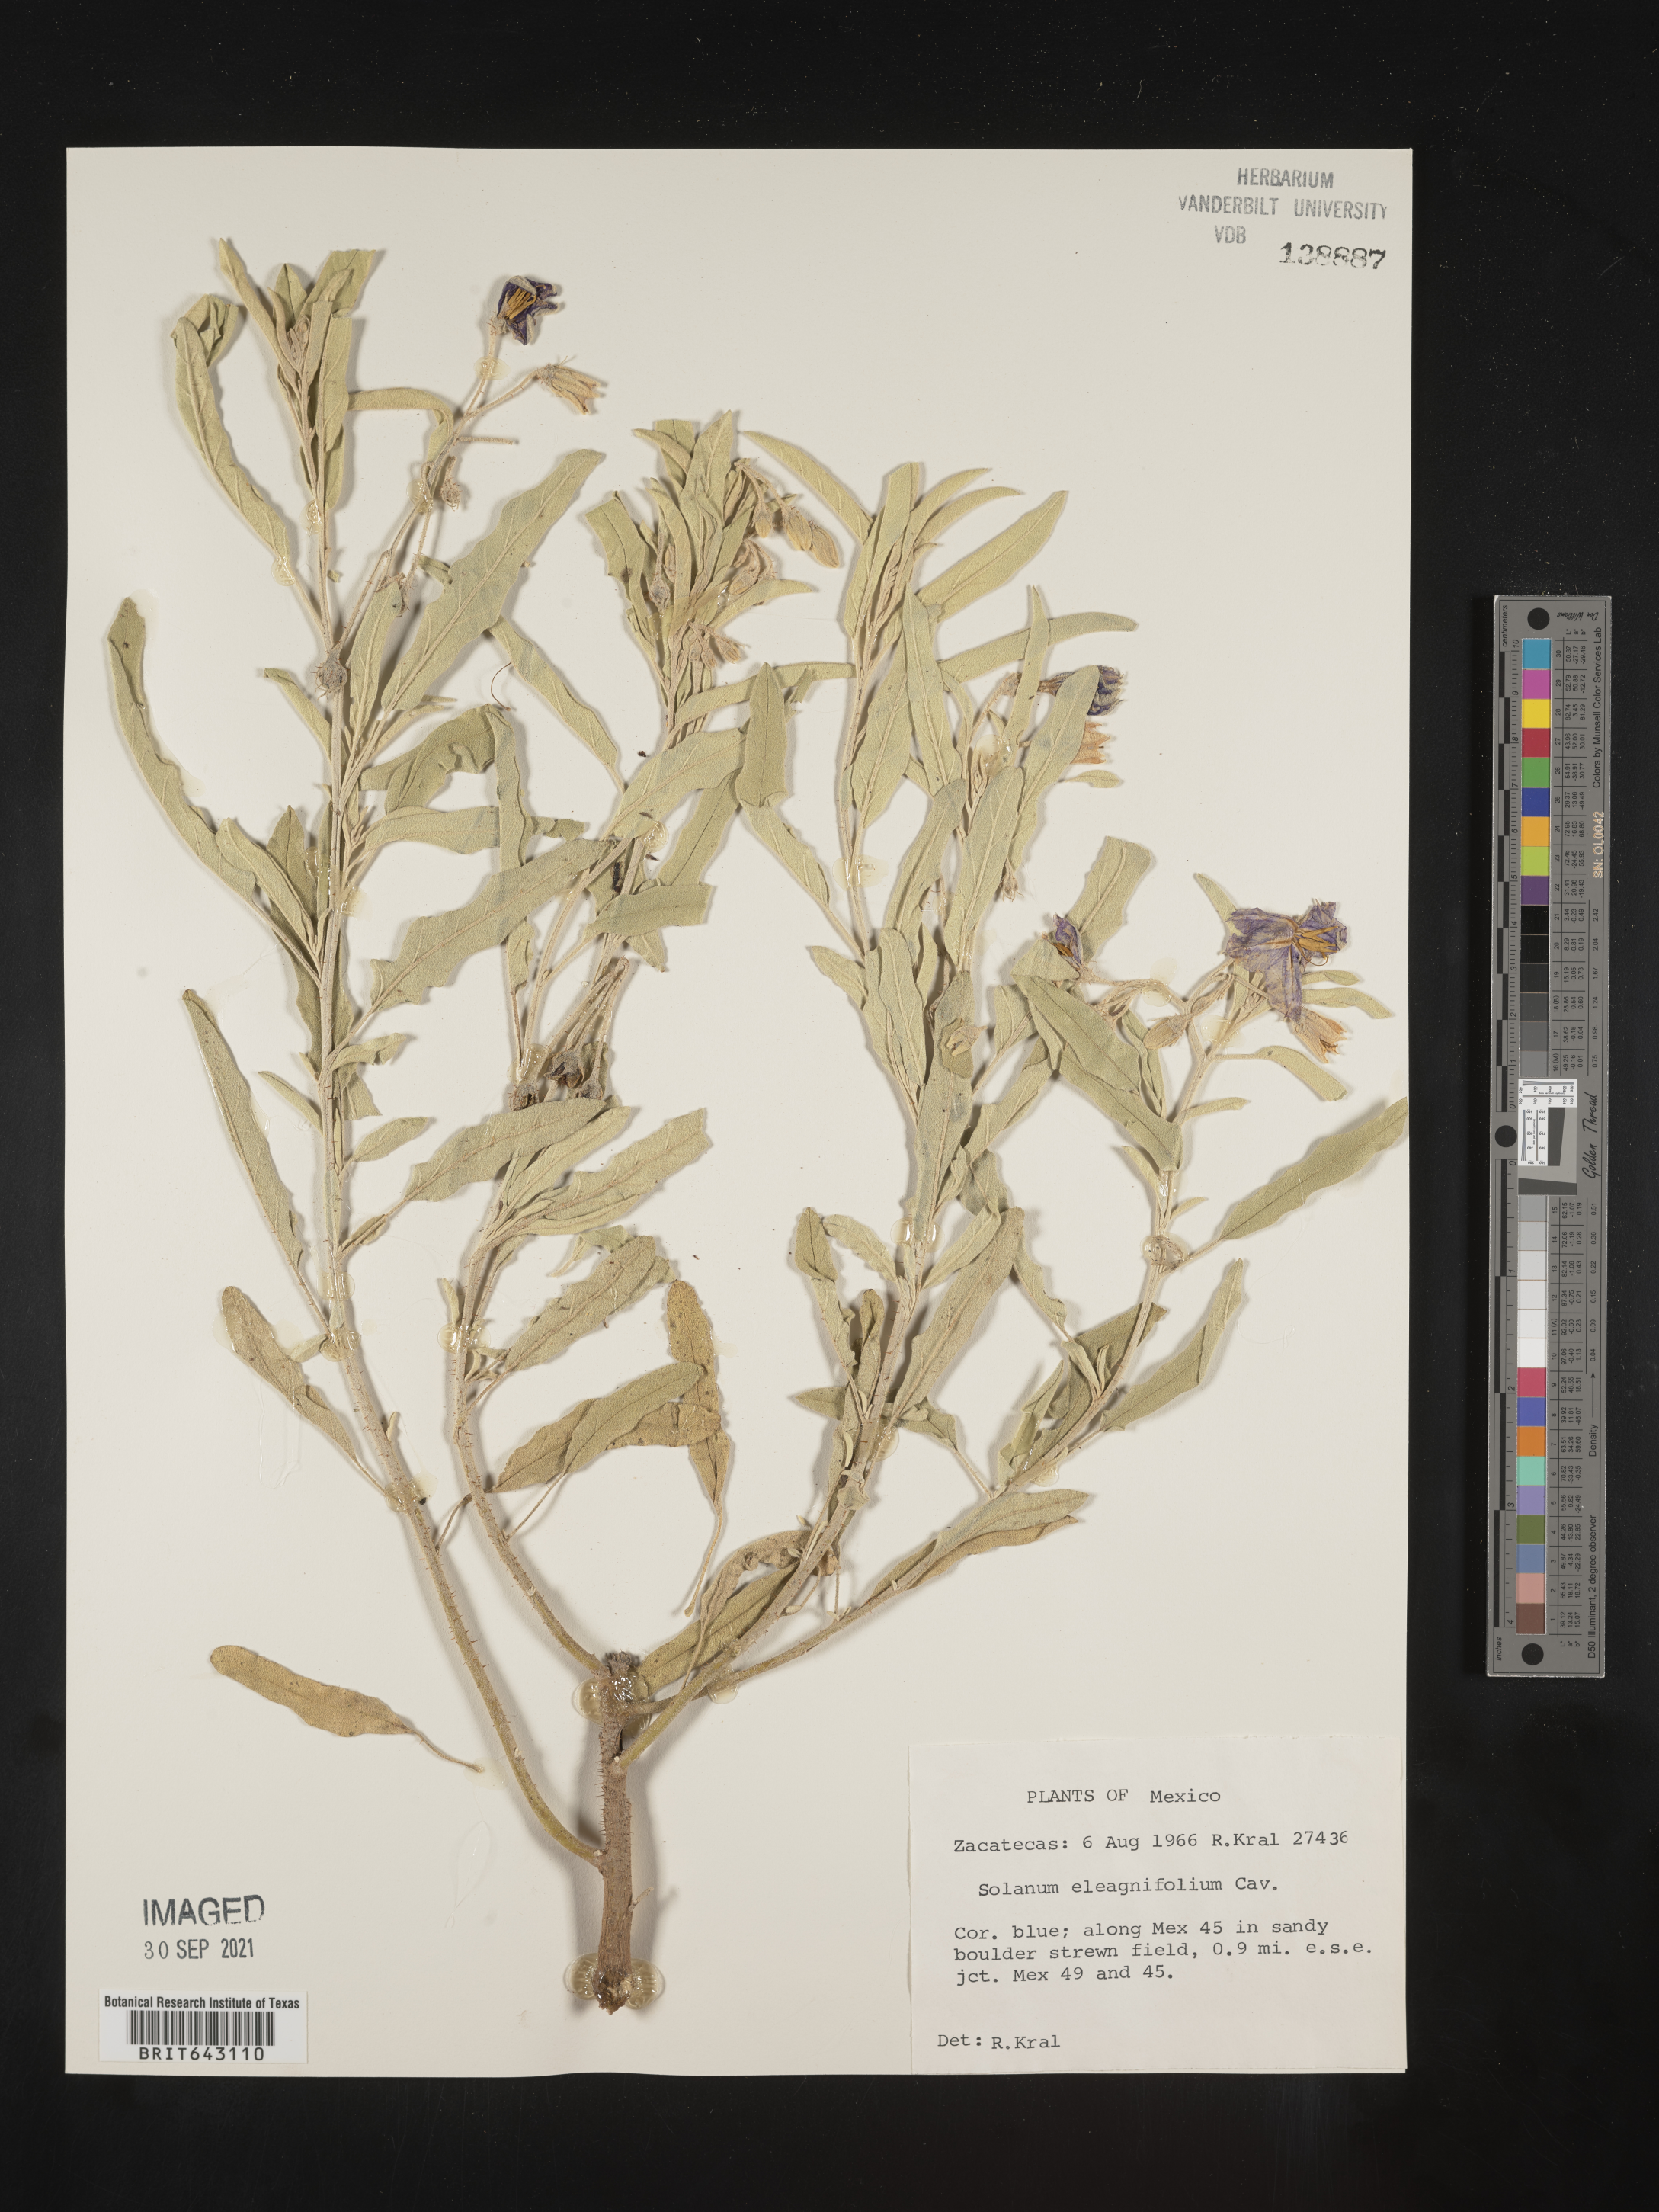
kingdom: Plantae
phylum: Tracheophyta
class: Magnoliopsida
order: Solanales
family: Solanaceae
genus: Solanum
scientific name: Solanum
